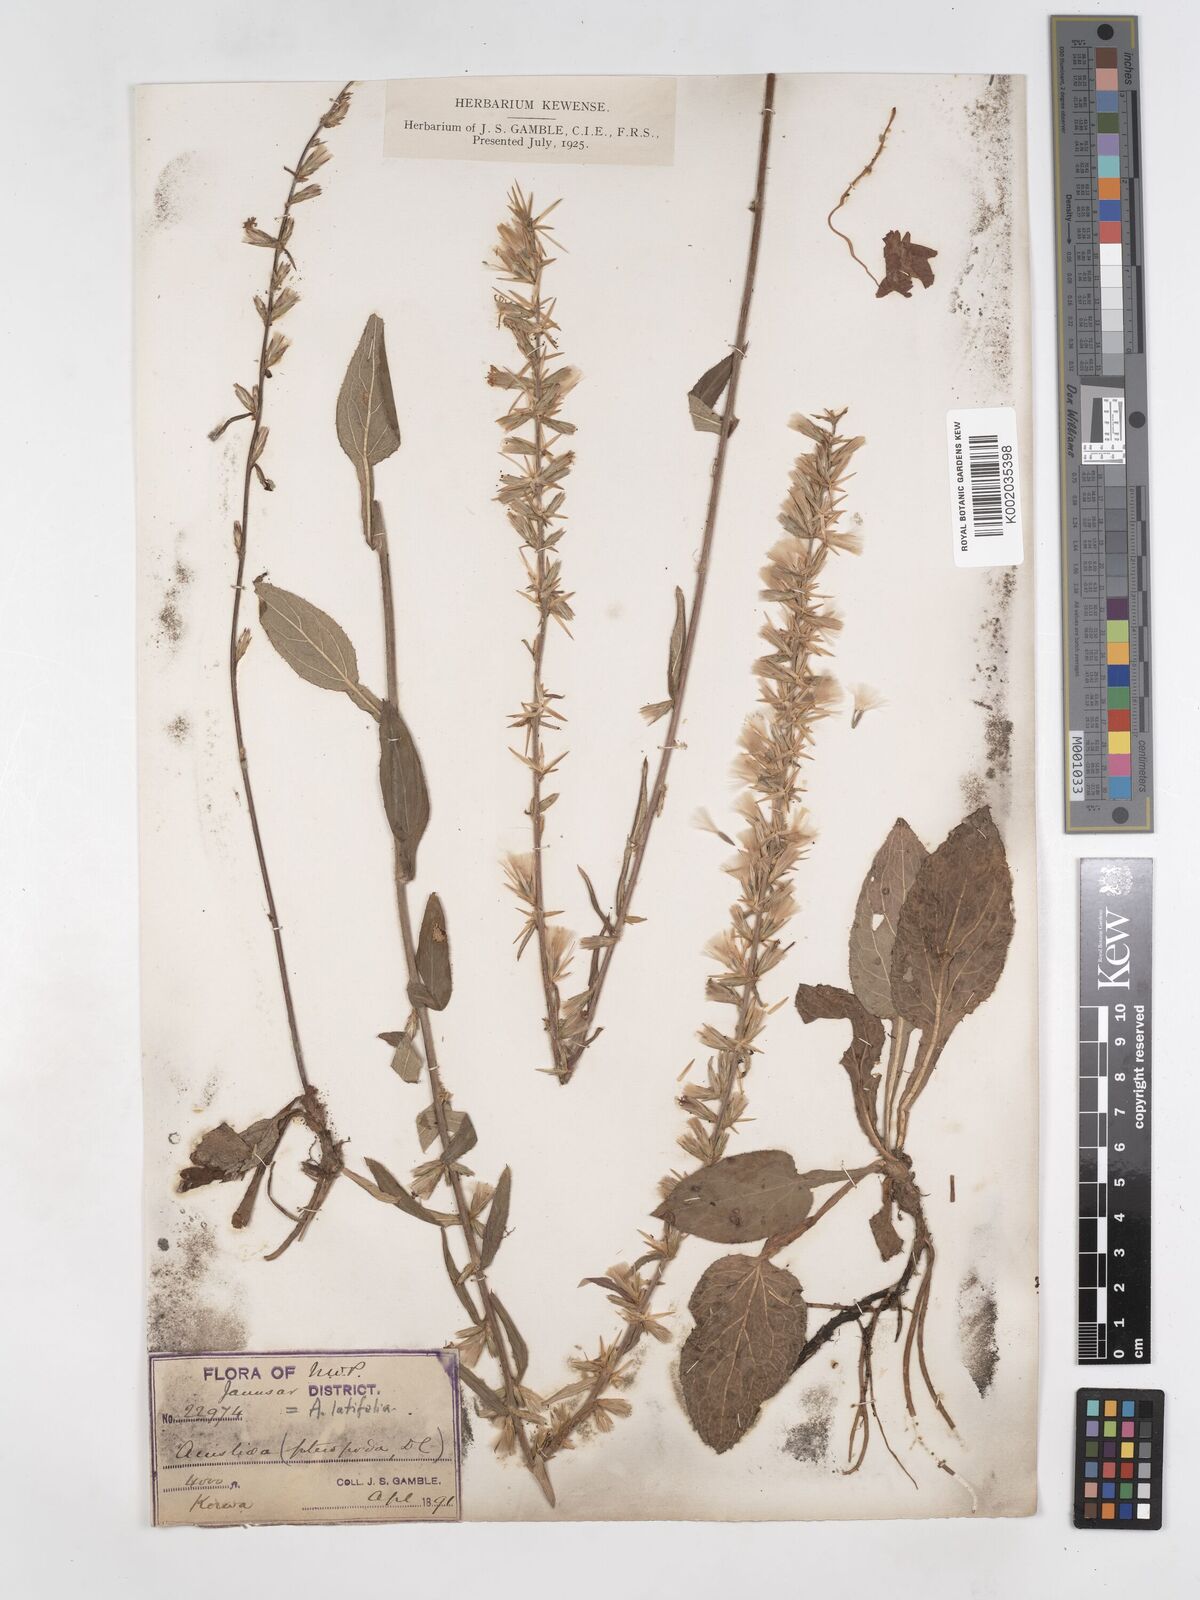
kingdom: Plantae
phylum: Tracheophyta
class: Magnoliopsida
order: Asterales
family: Asteraceae
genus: Ainsliaea
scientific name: Ainsliaea latifolia
